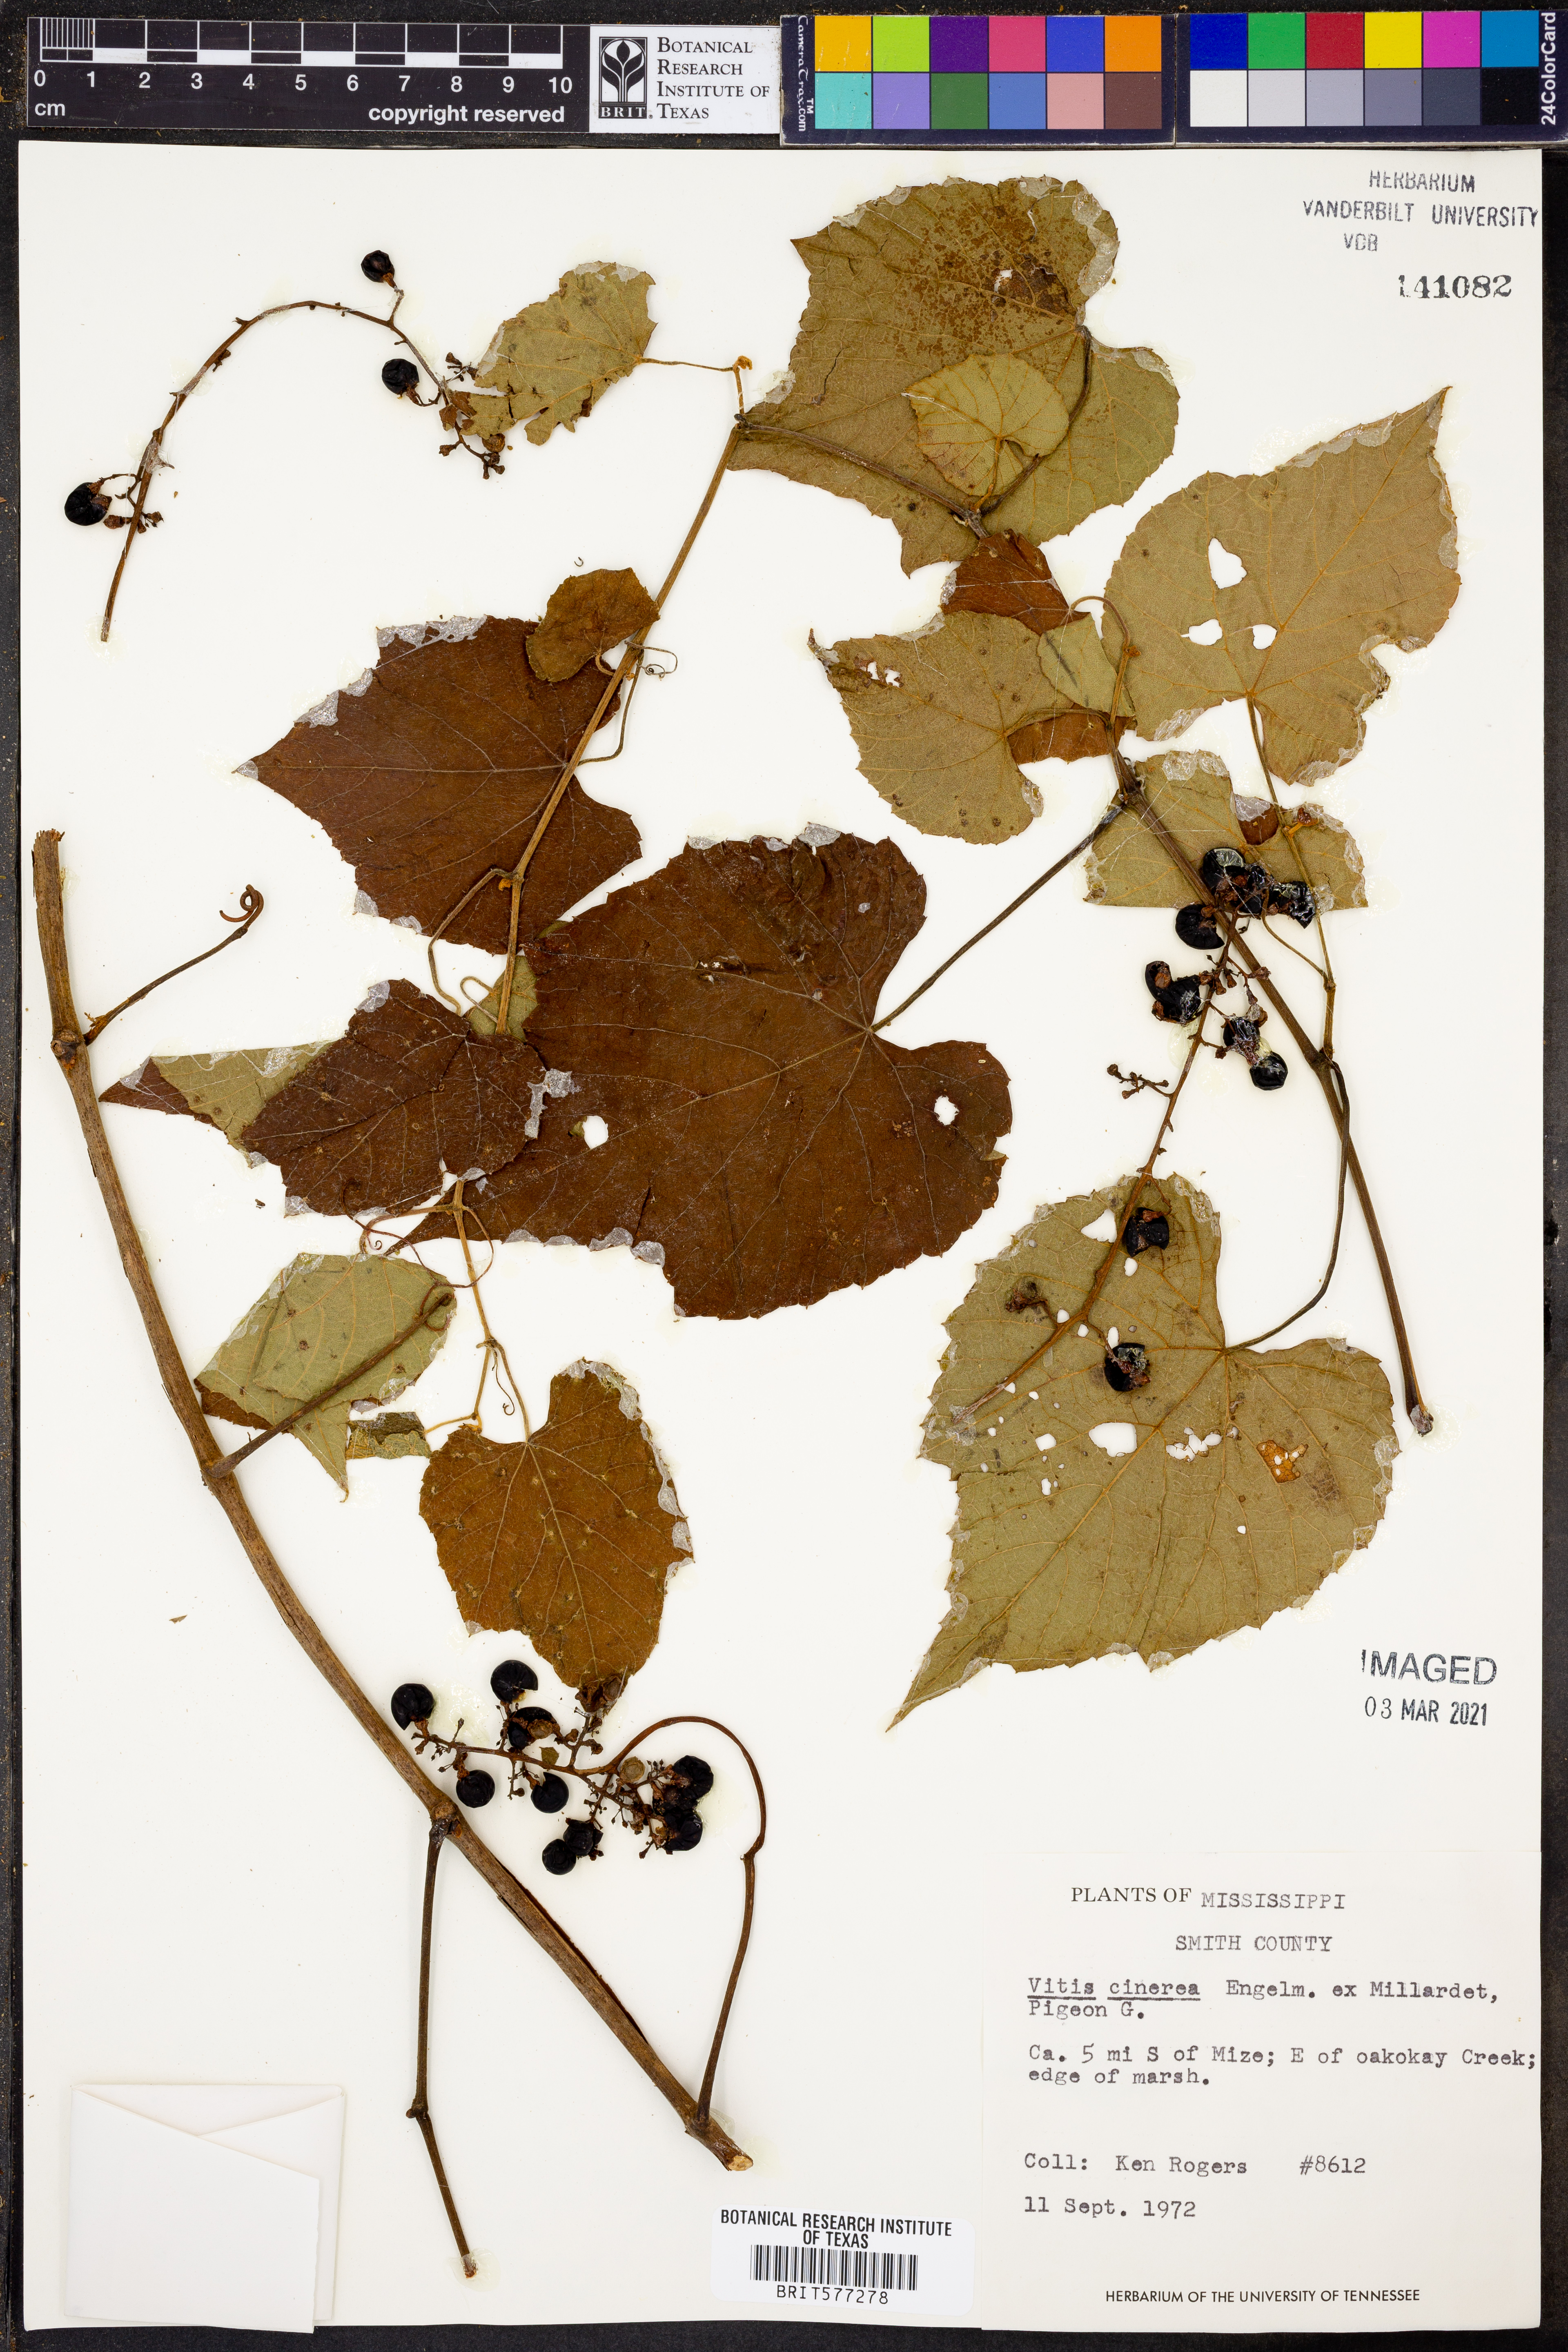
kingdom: Plantae
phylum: Tracheophyta
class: Magnoliopsida
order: Vitales
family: Vitaceae
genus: Vitis
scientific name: Vitis cinerea
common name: Ashy grape
